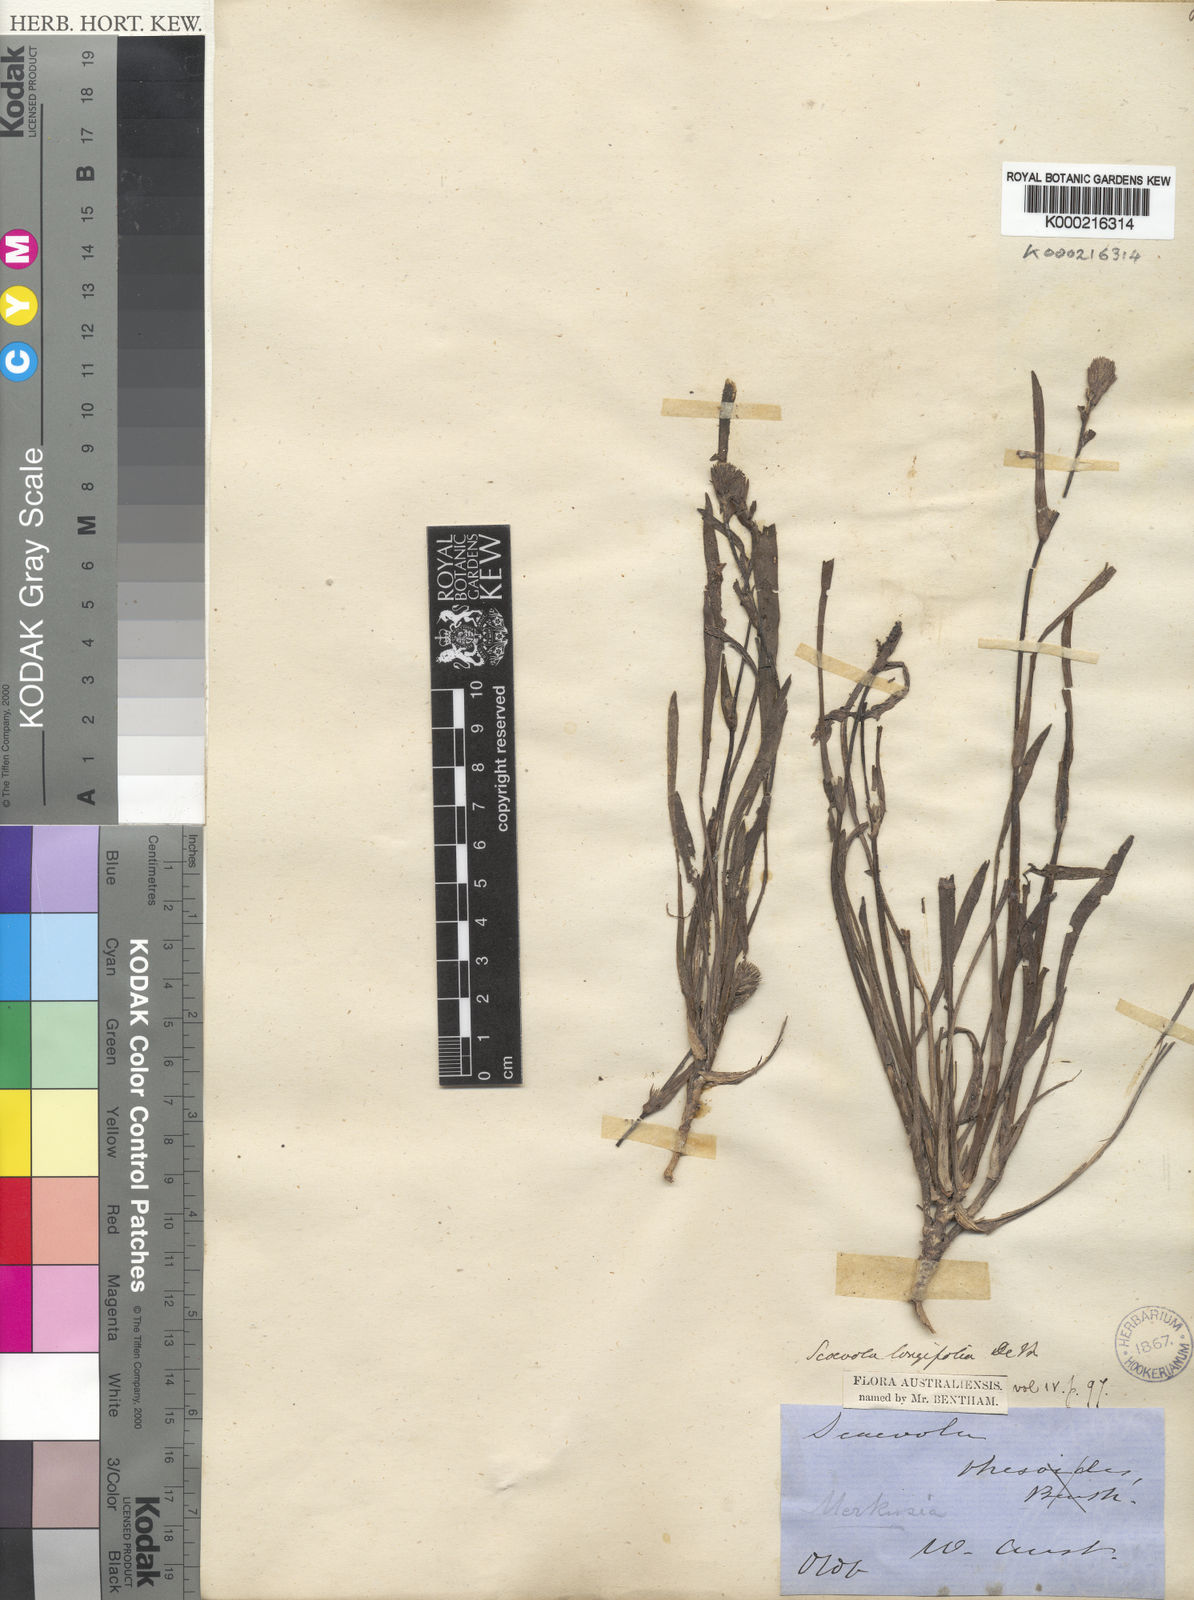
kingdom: Plantae
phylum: Tracheophyta
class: Magnoliopsida
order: Asterales
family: Goodeniaceae
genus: Scaevola
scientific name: Scaevola lanceolata
